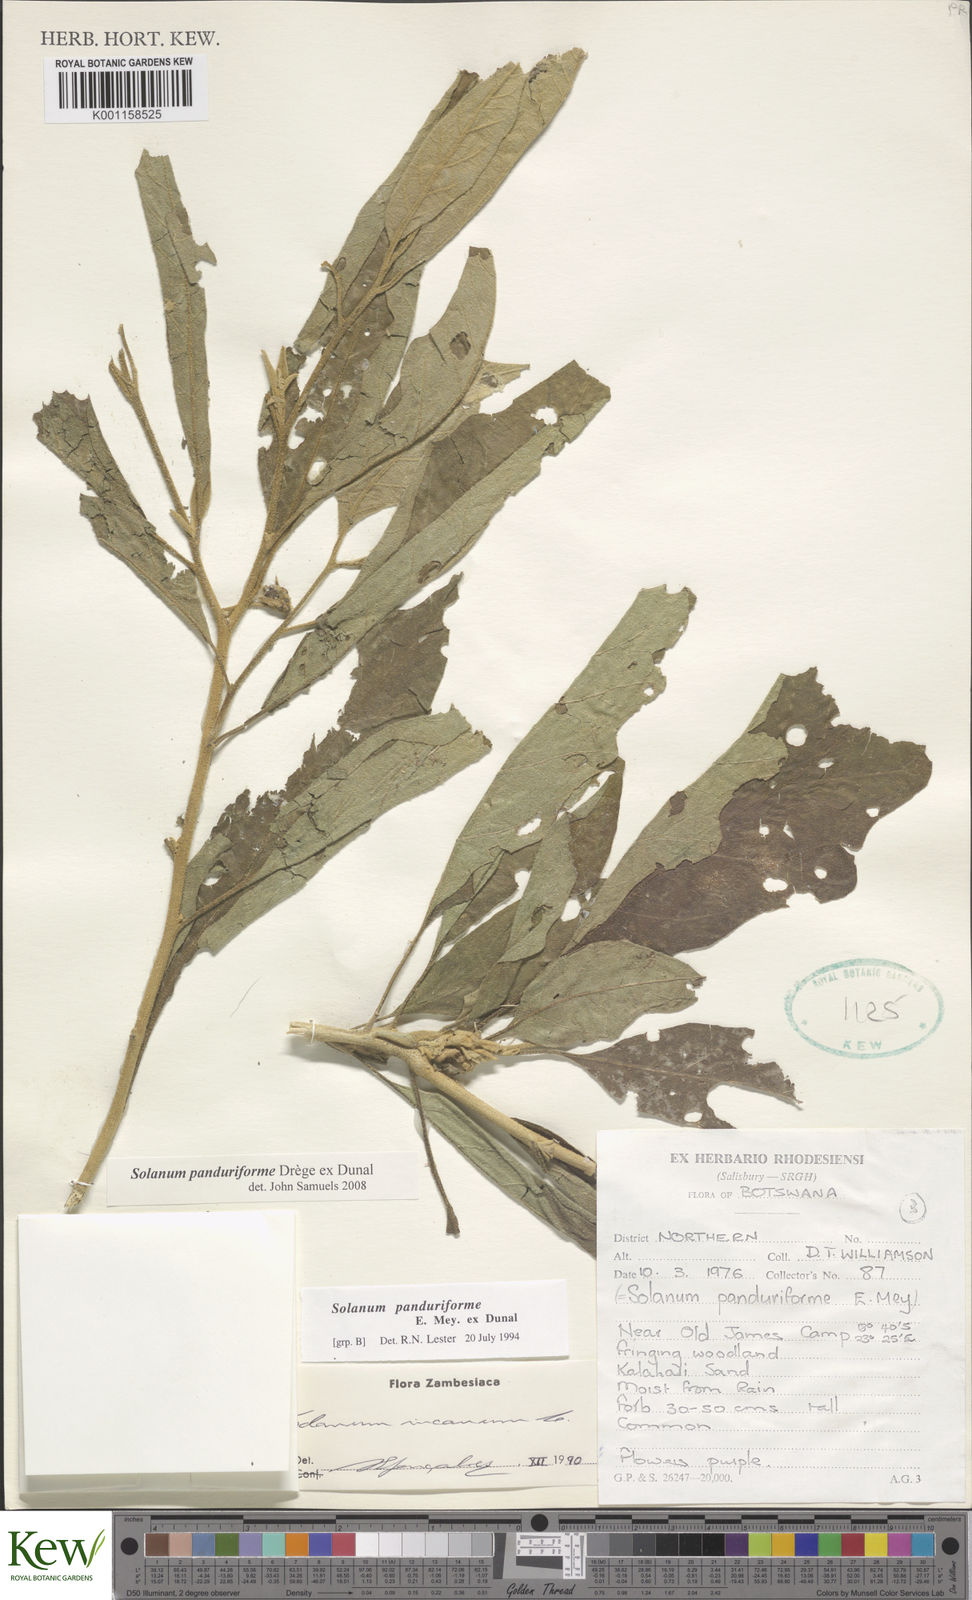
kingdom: Plantae
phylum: Tracheophyta
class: Magnoliopsida
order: Solanales
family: Solanaceae
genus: Solanum
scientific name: Solanum campylacanthum
